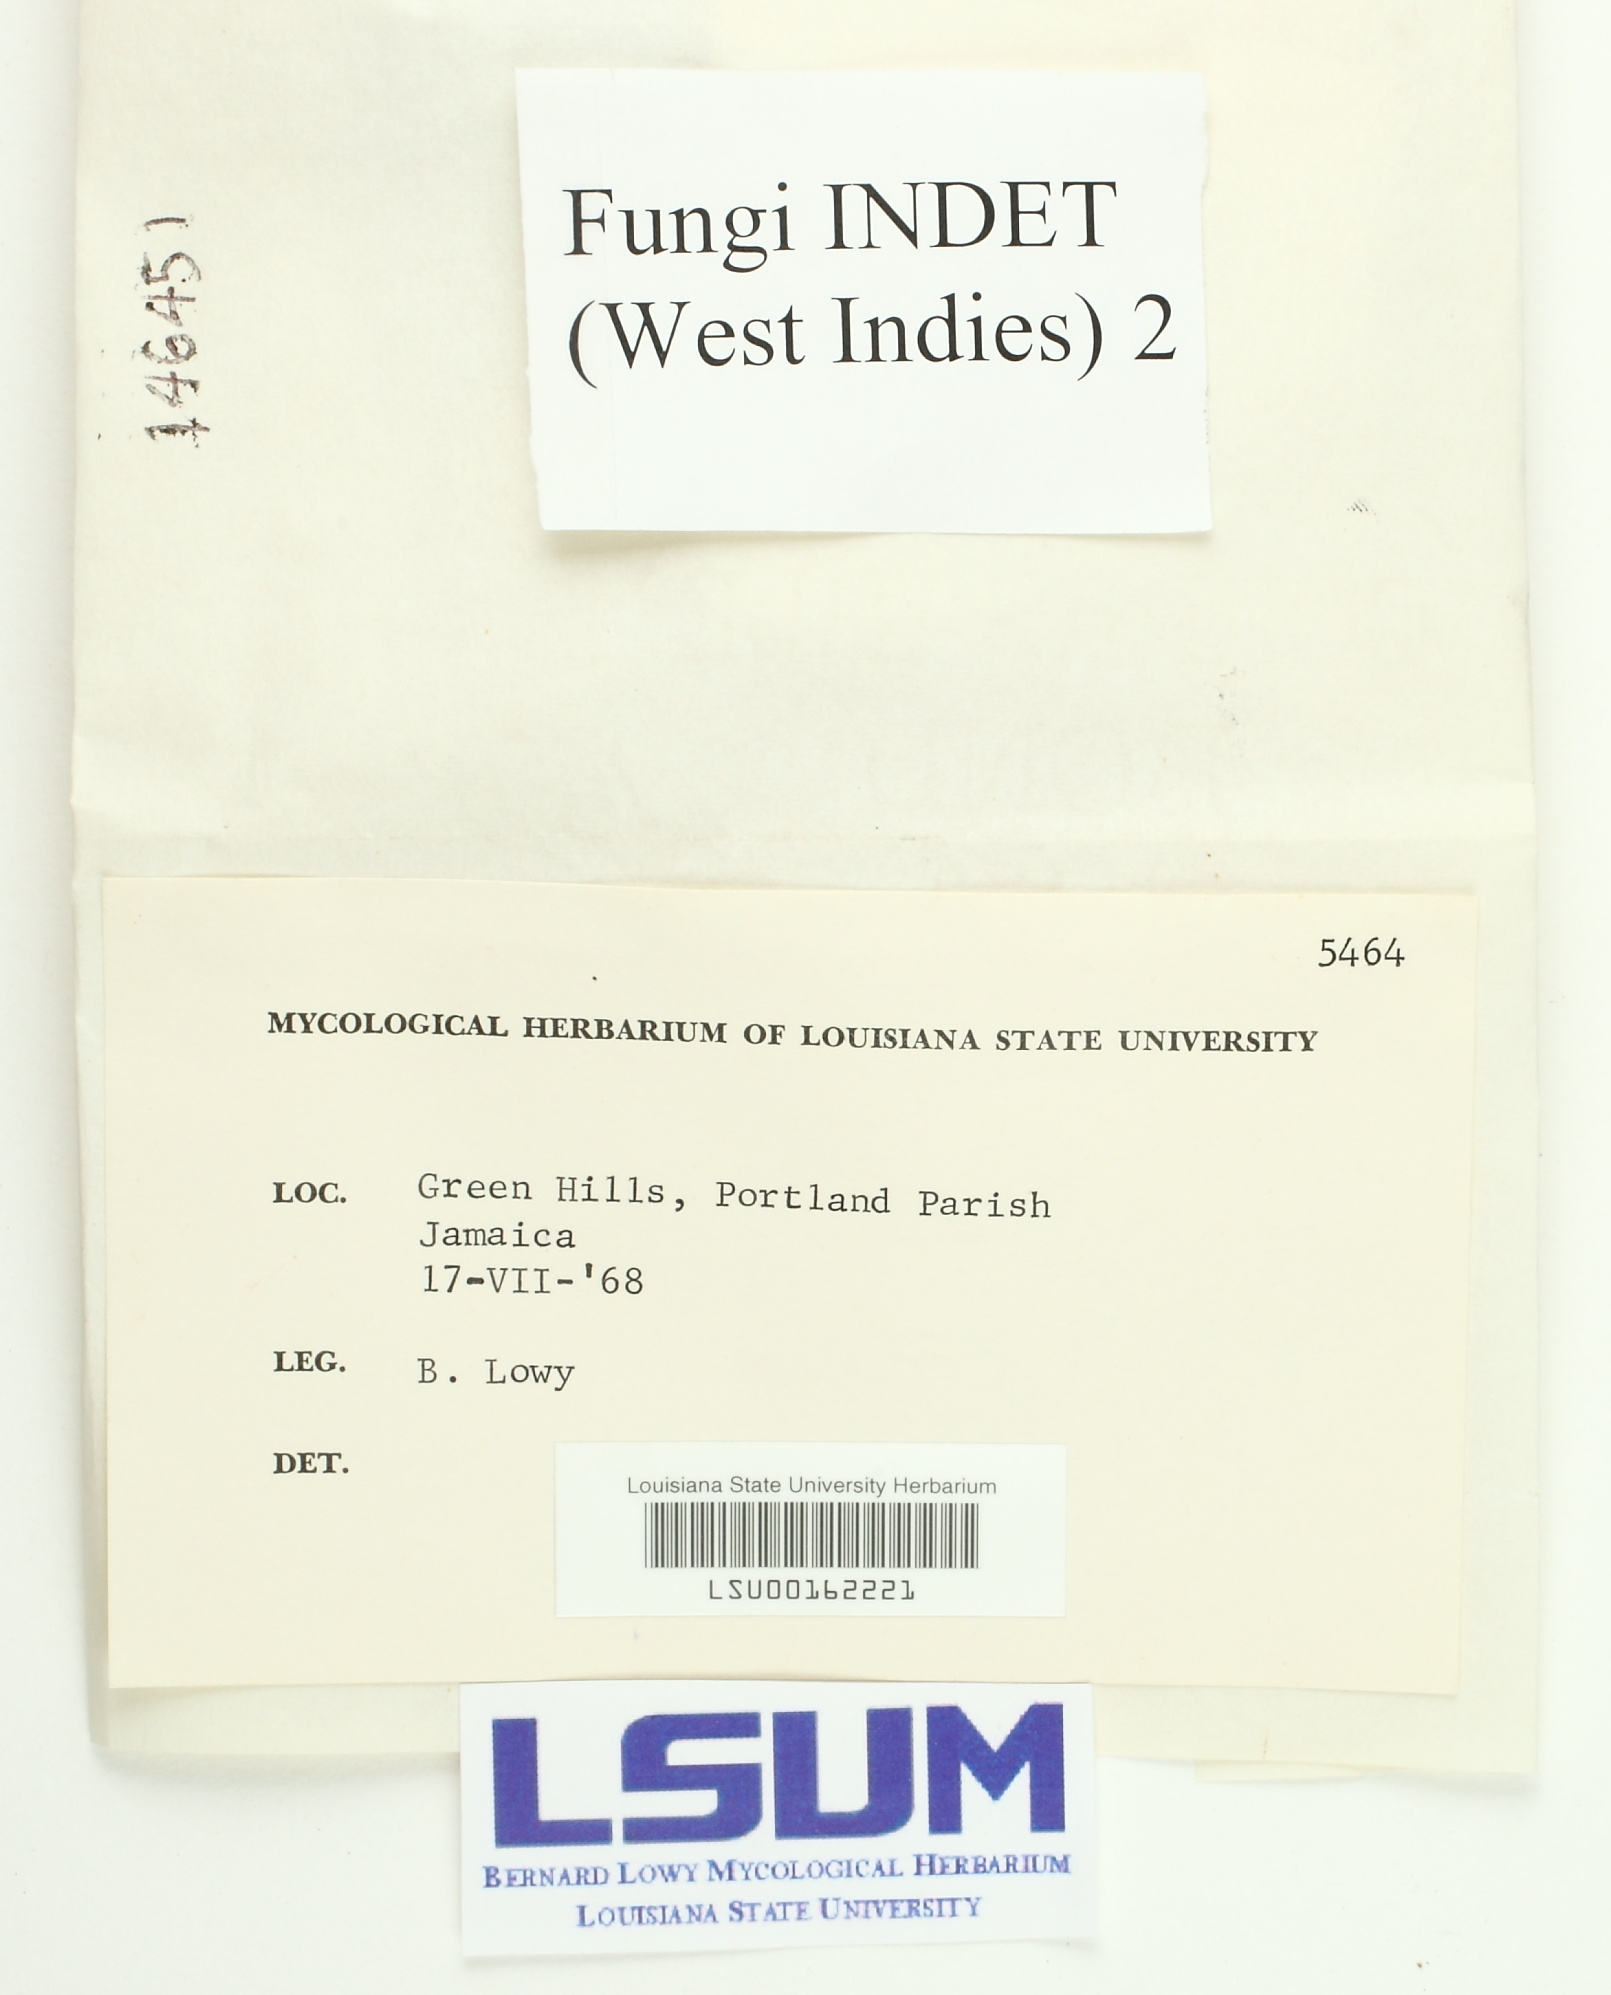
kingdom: Fungi
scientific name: Fungi
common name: Fungi
